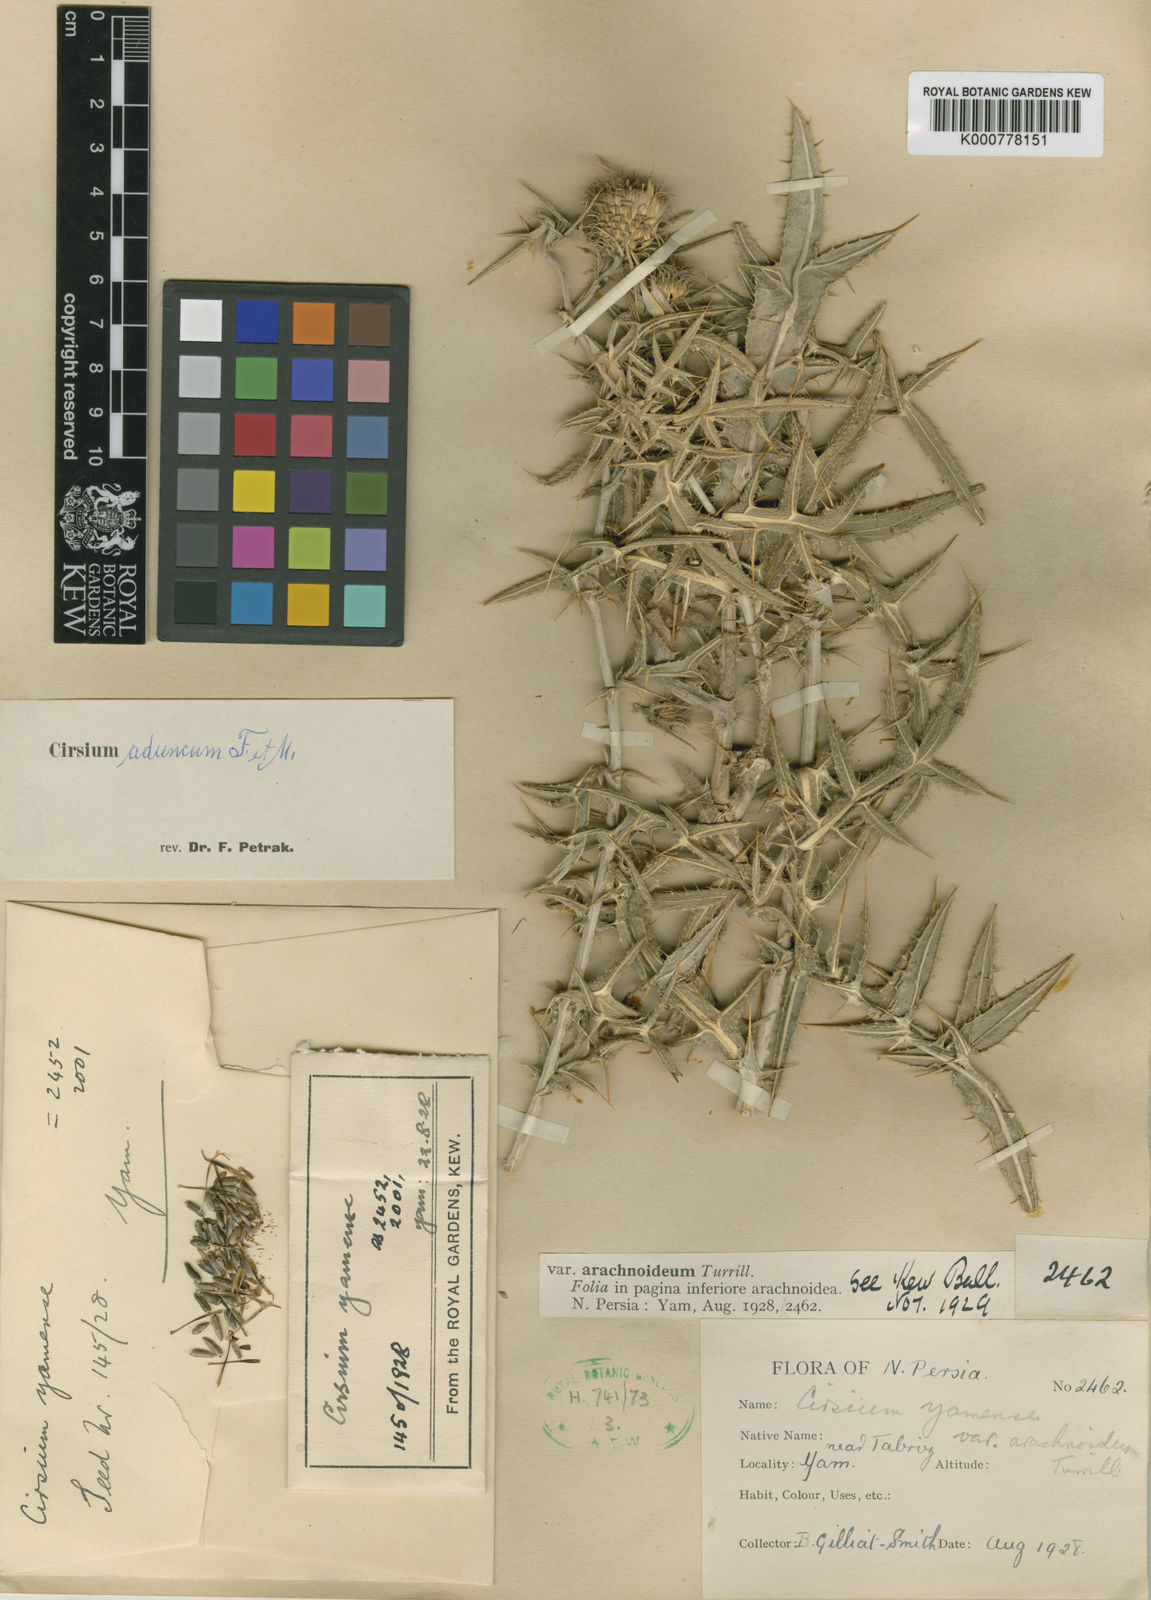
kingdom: Plantae
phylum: Tracheophyta
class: Magnoliopsida
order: Asterales
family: Asteraceae
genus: Lophiolepis
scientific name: Lophiolepis rigida
